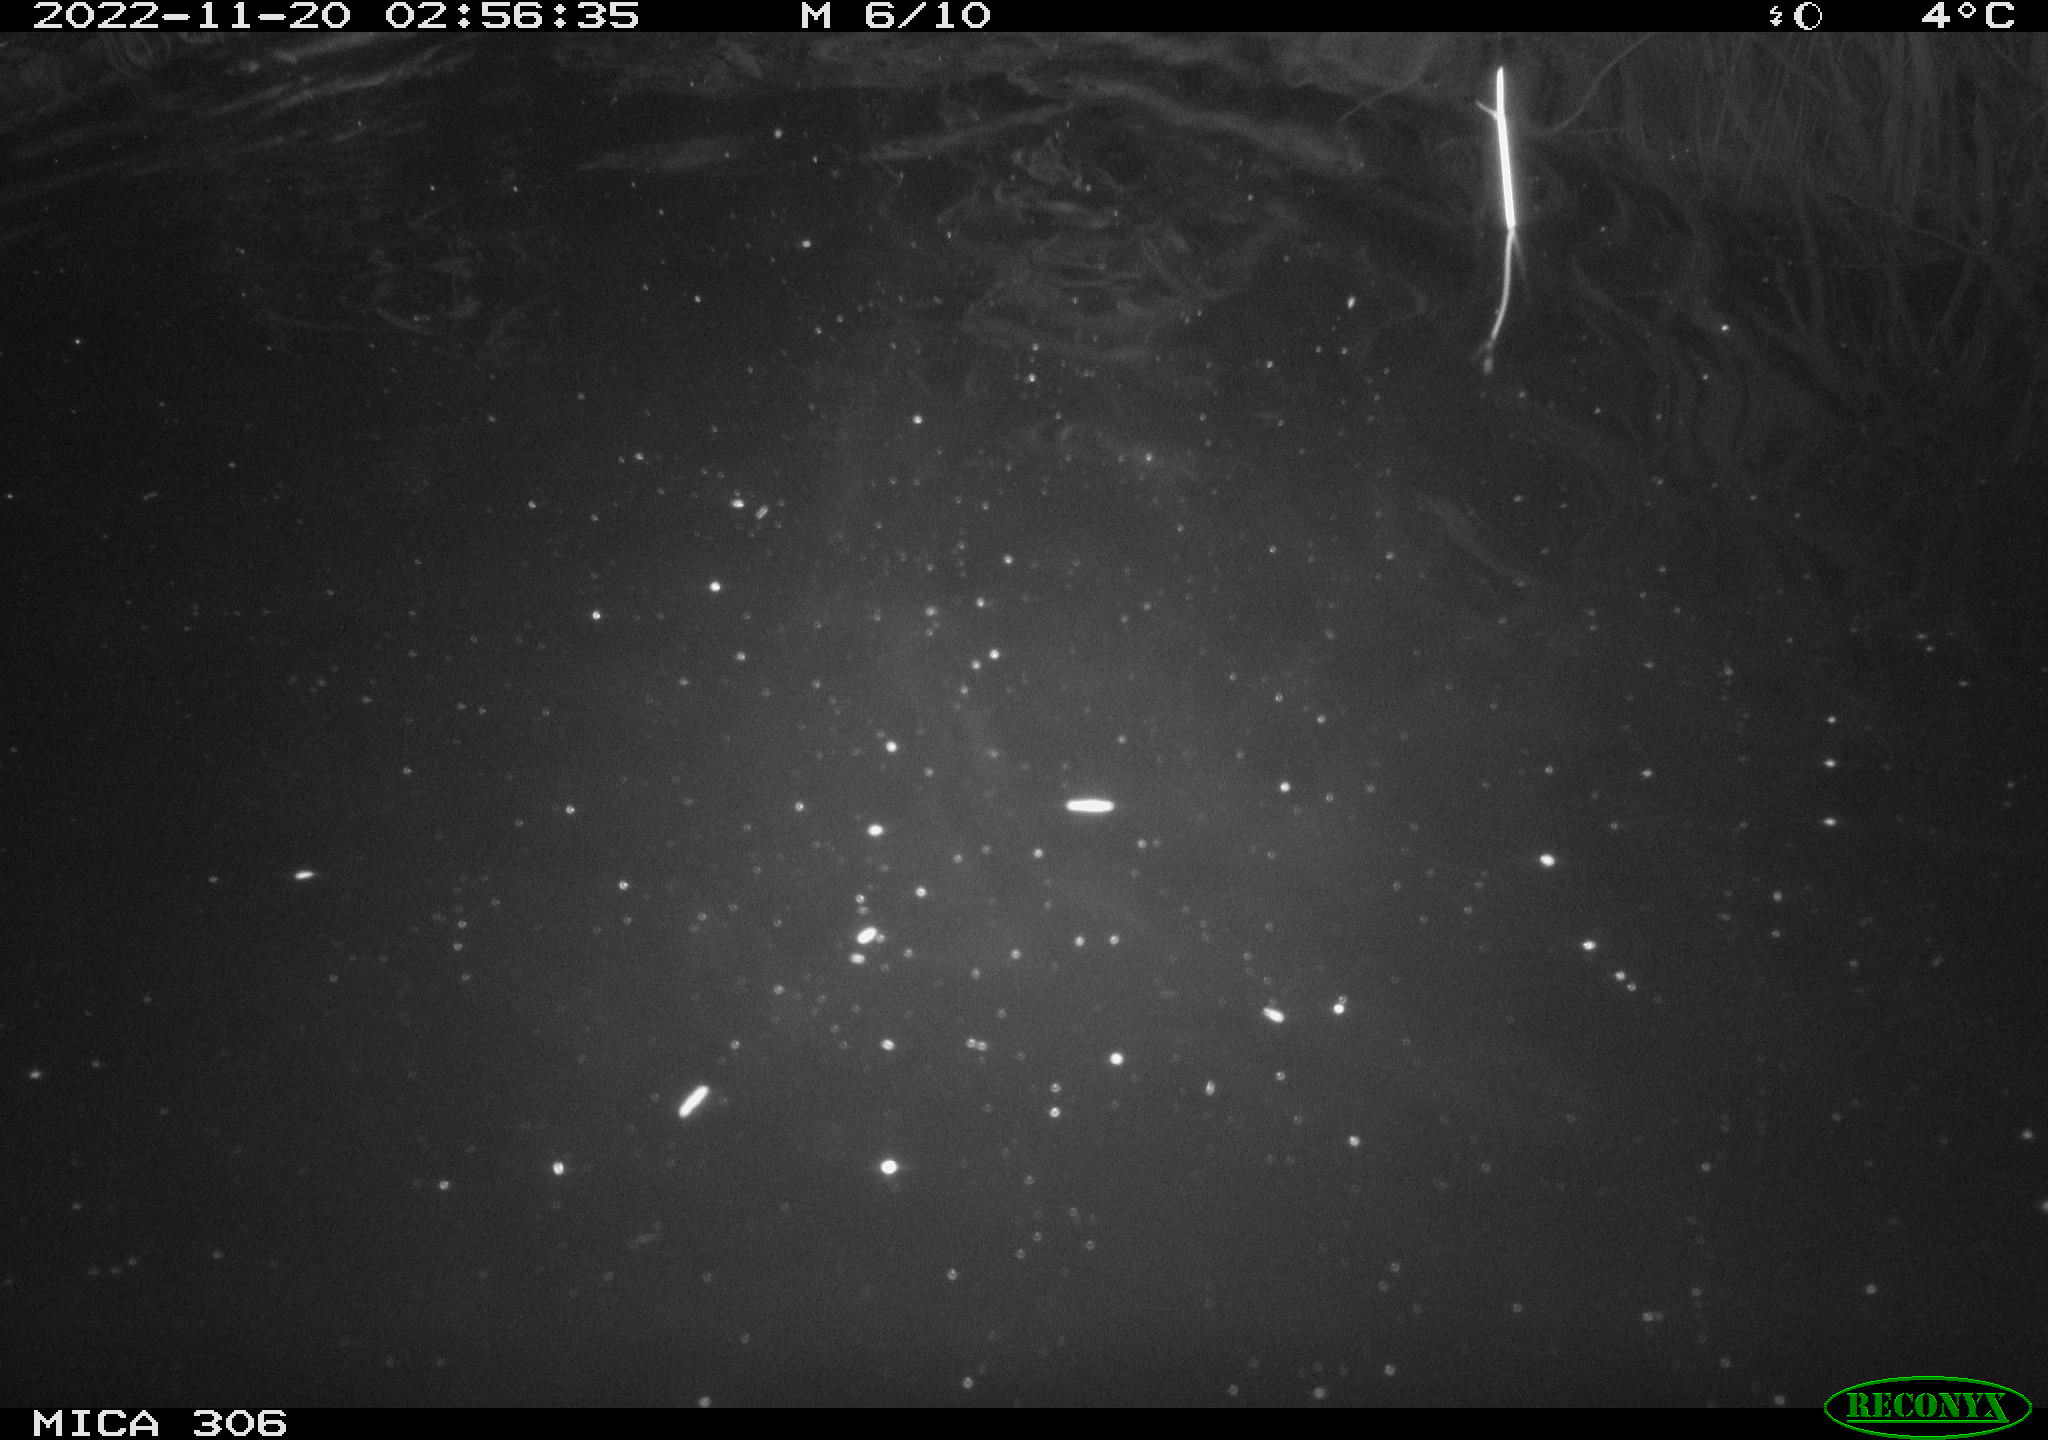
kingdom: Animalia
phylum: Chordata
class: Mammalia
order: Rodentia
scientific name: Rodentia
